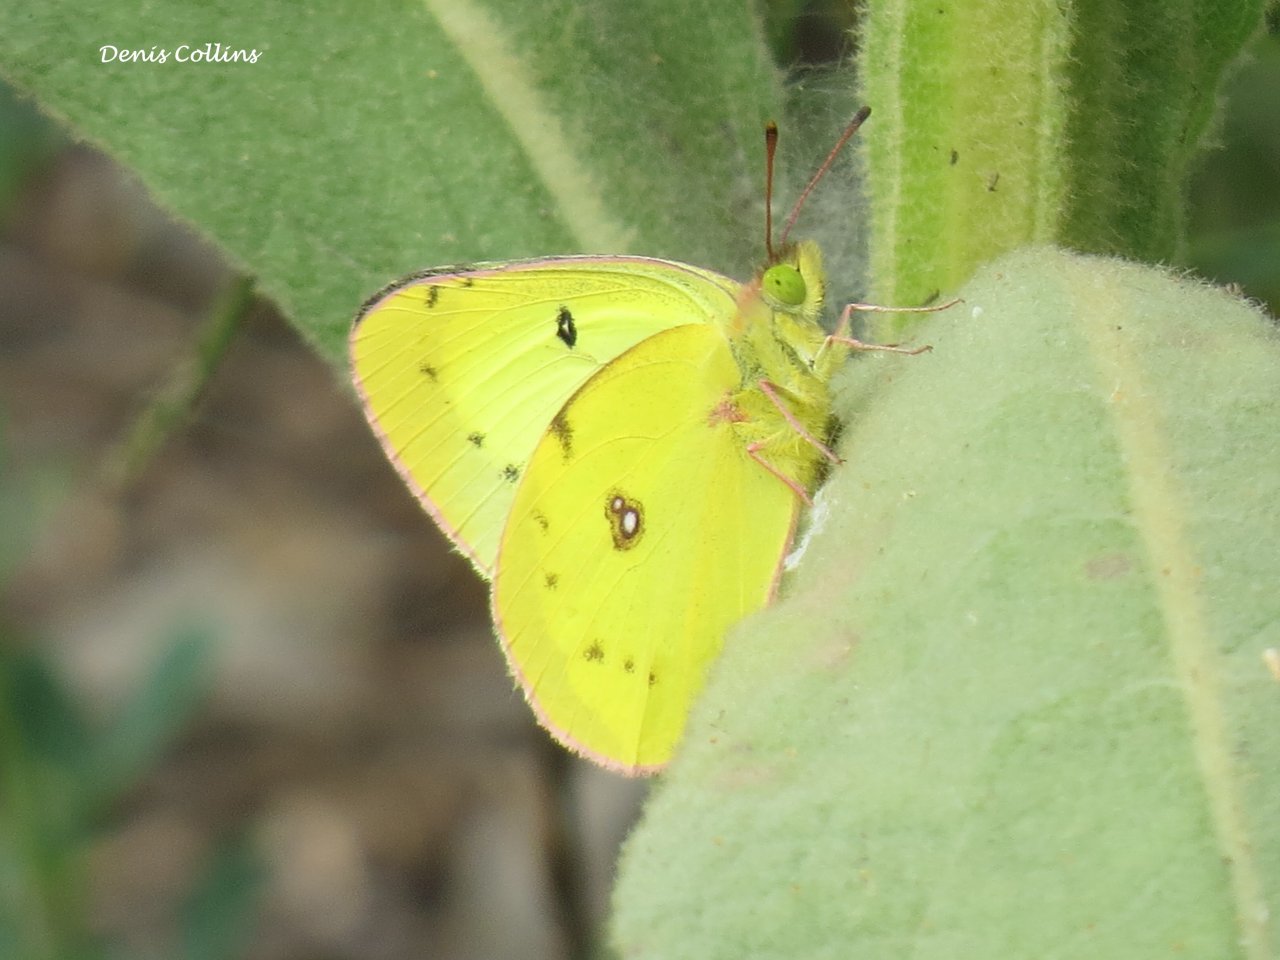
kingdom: Animalia
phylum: Arthropoda
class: Insecta
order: Lepidoptera
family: Pieridae
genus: Colias
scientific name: Colias philodice
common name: Clouded Sulphur
